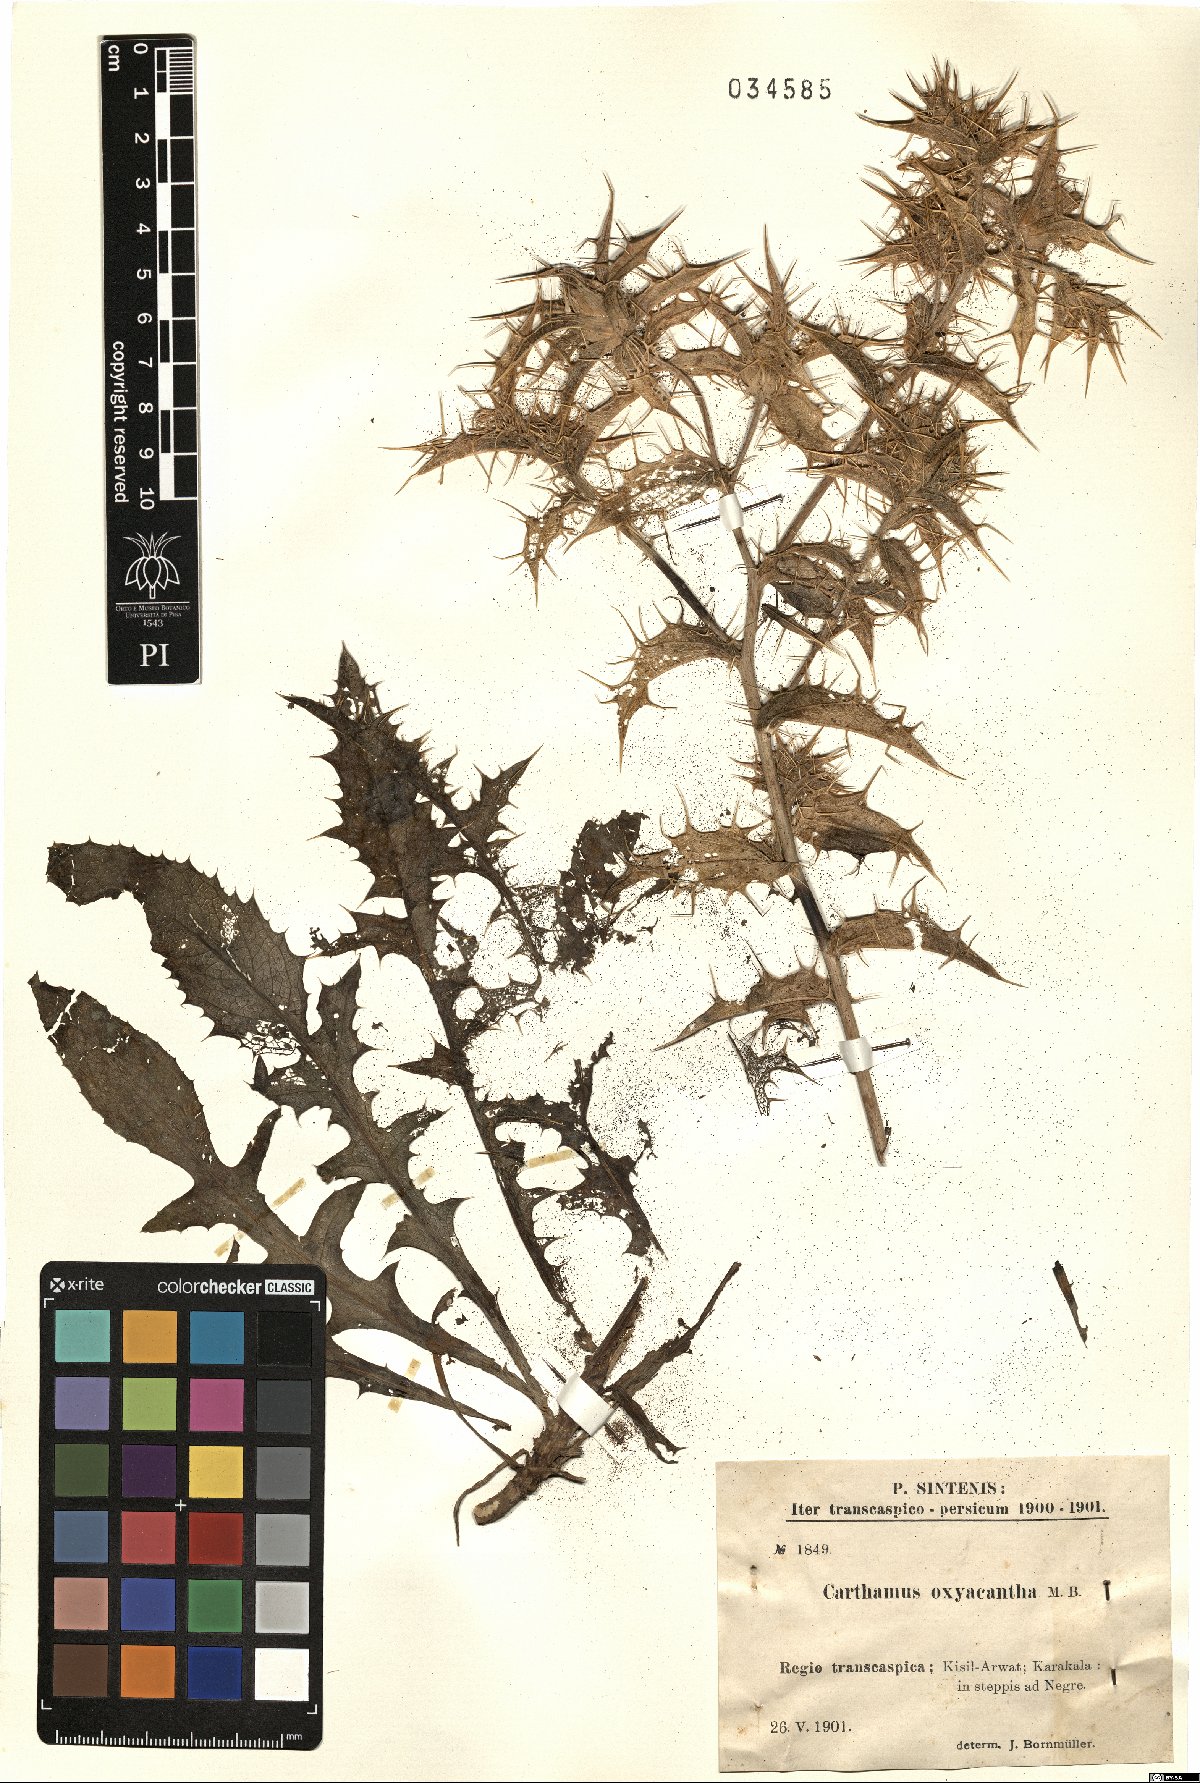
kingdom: Plantae
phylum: Tracheophyta
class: Magnoliopsida
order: Asterales
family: Asteraceae
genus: Carthamus
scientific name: Carthamus oxyacanthus
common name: Wild safflower
